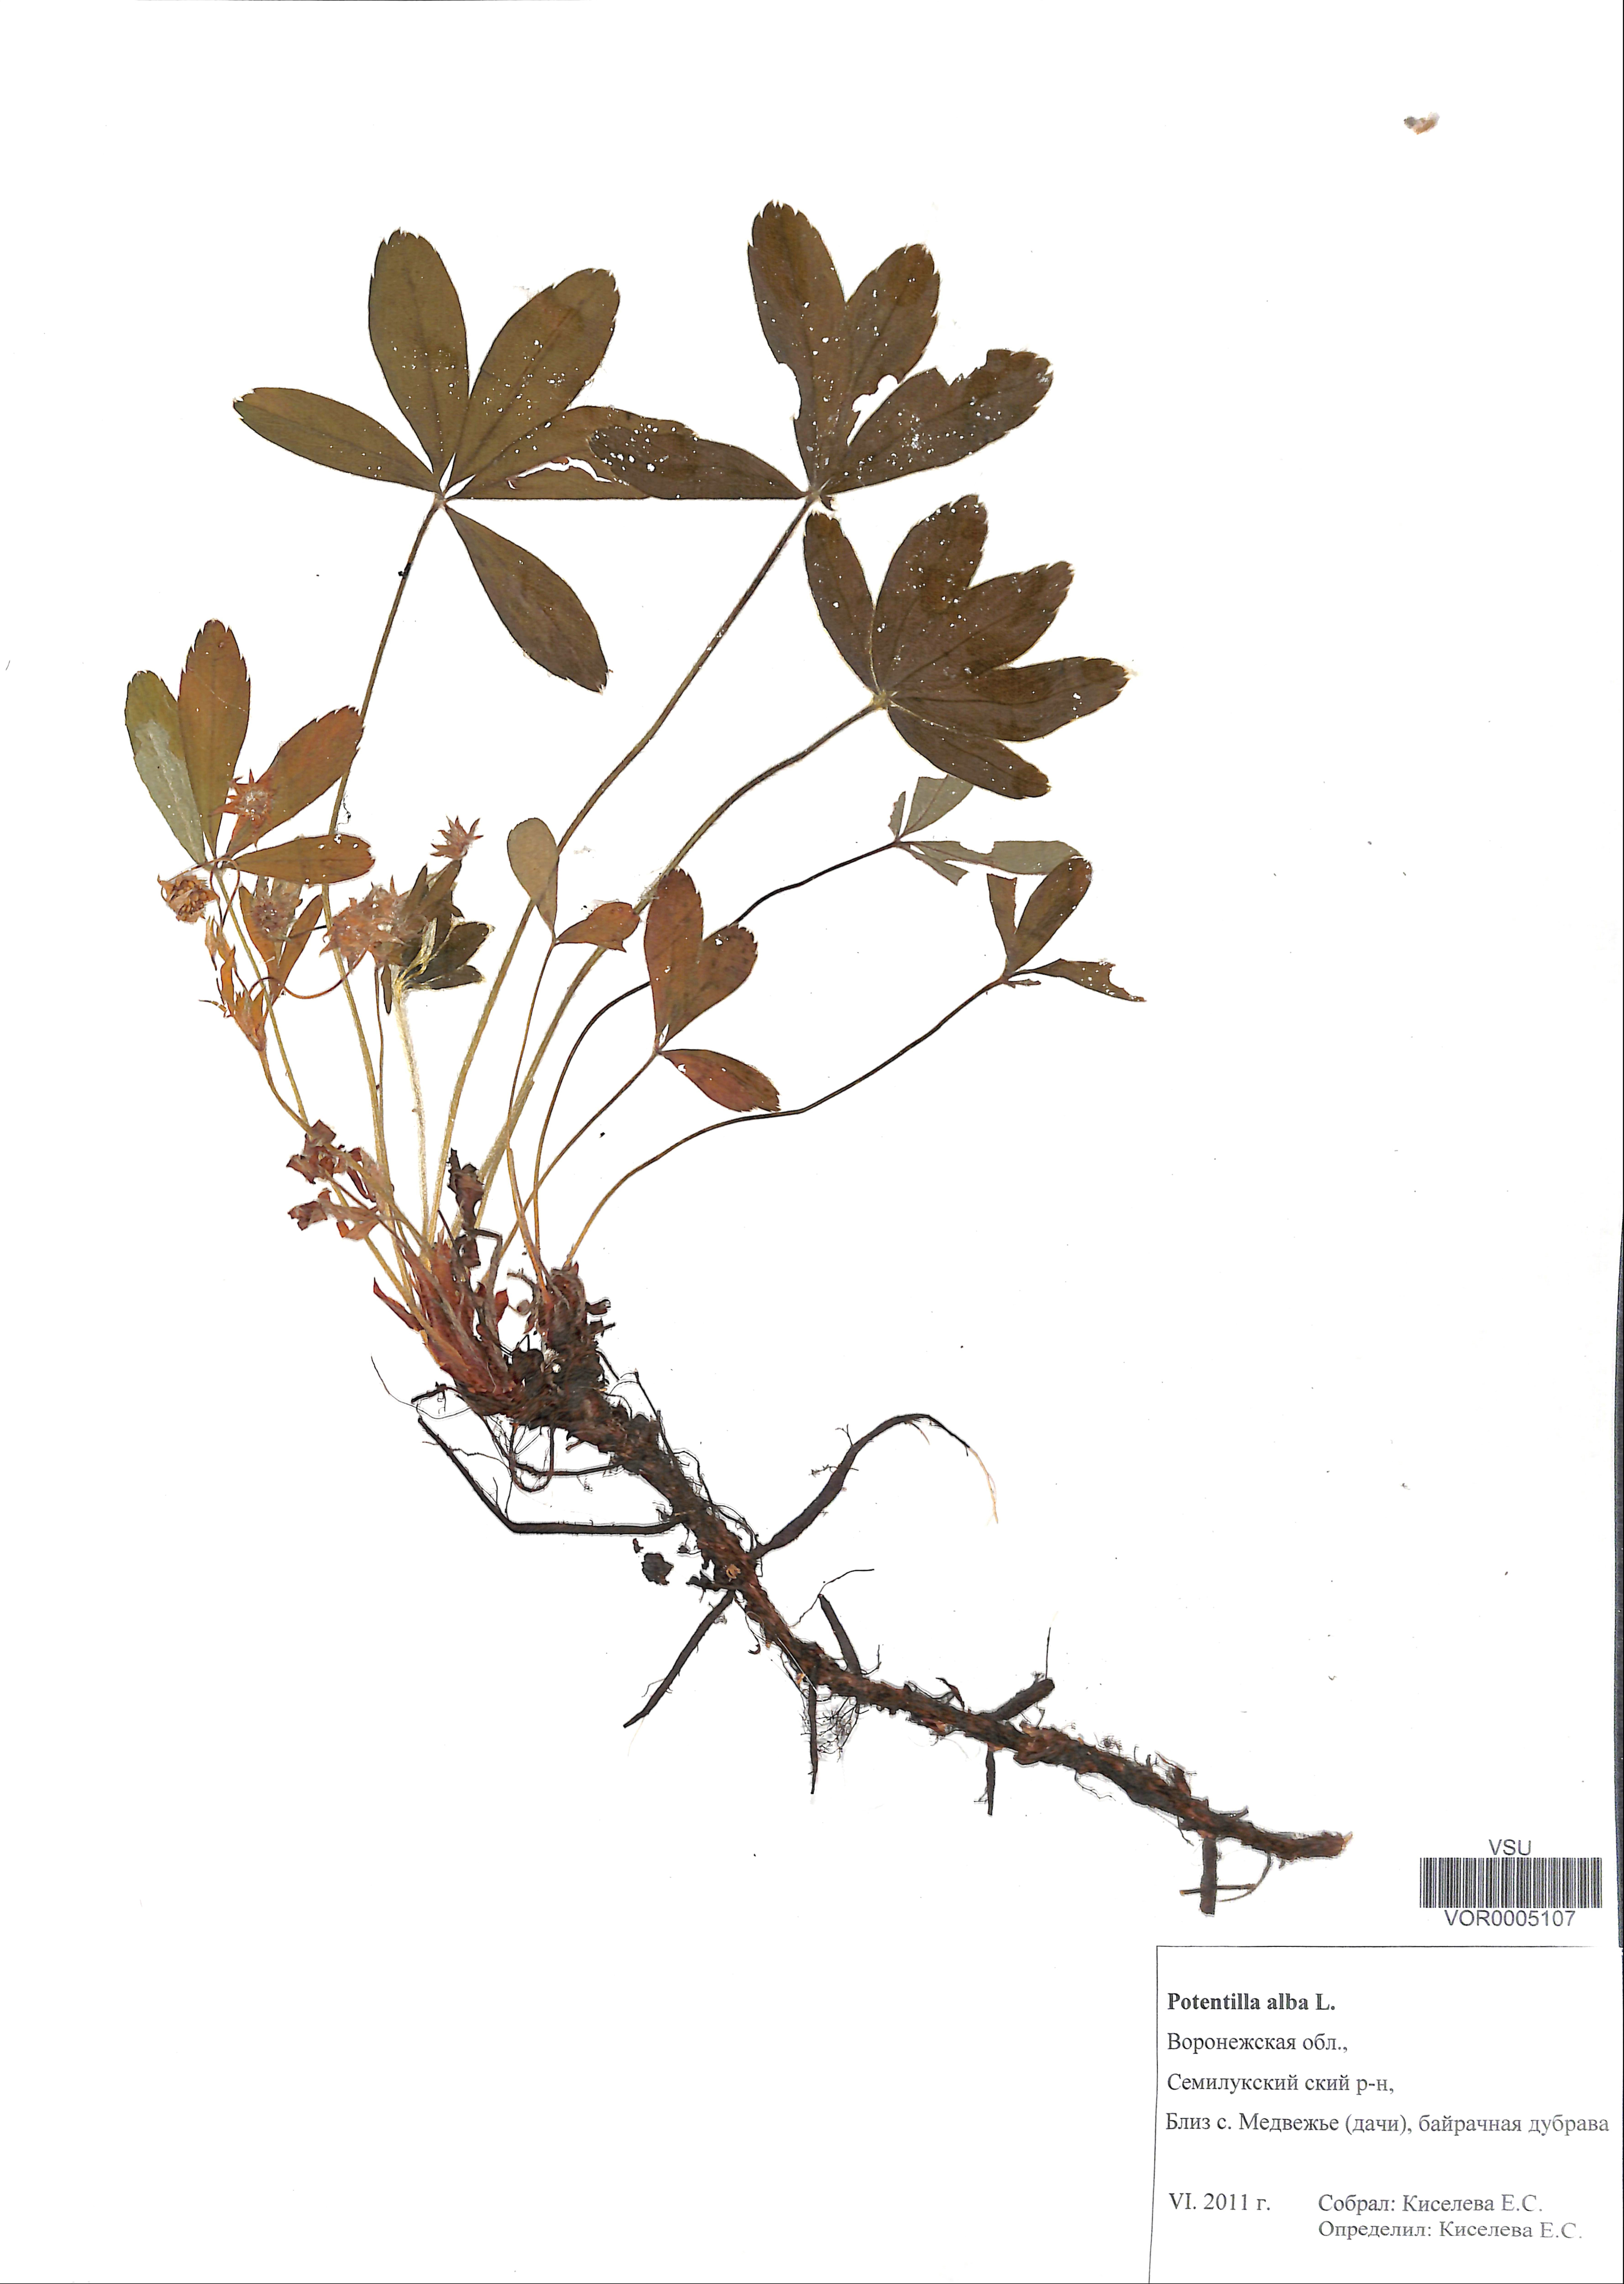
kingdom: Plantae
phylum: Tracheophyta
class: Magnoliopsida
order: Rosales
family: Rosaceae
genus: Potentilla
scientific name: Potentilla alba
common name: White cinquefoil
